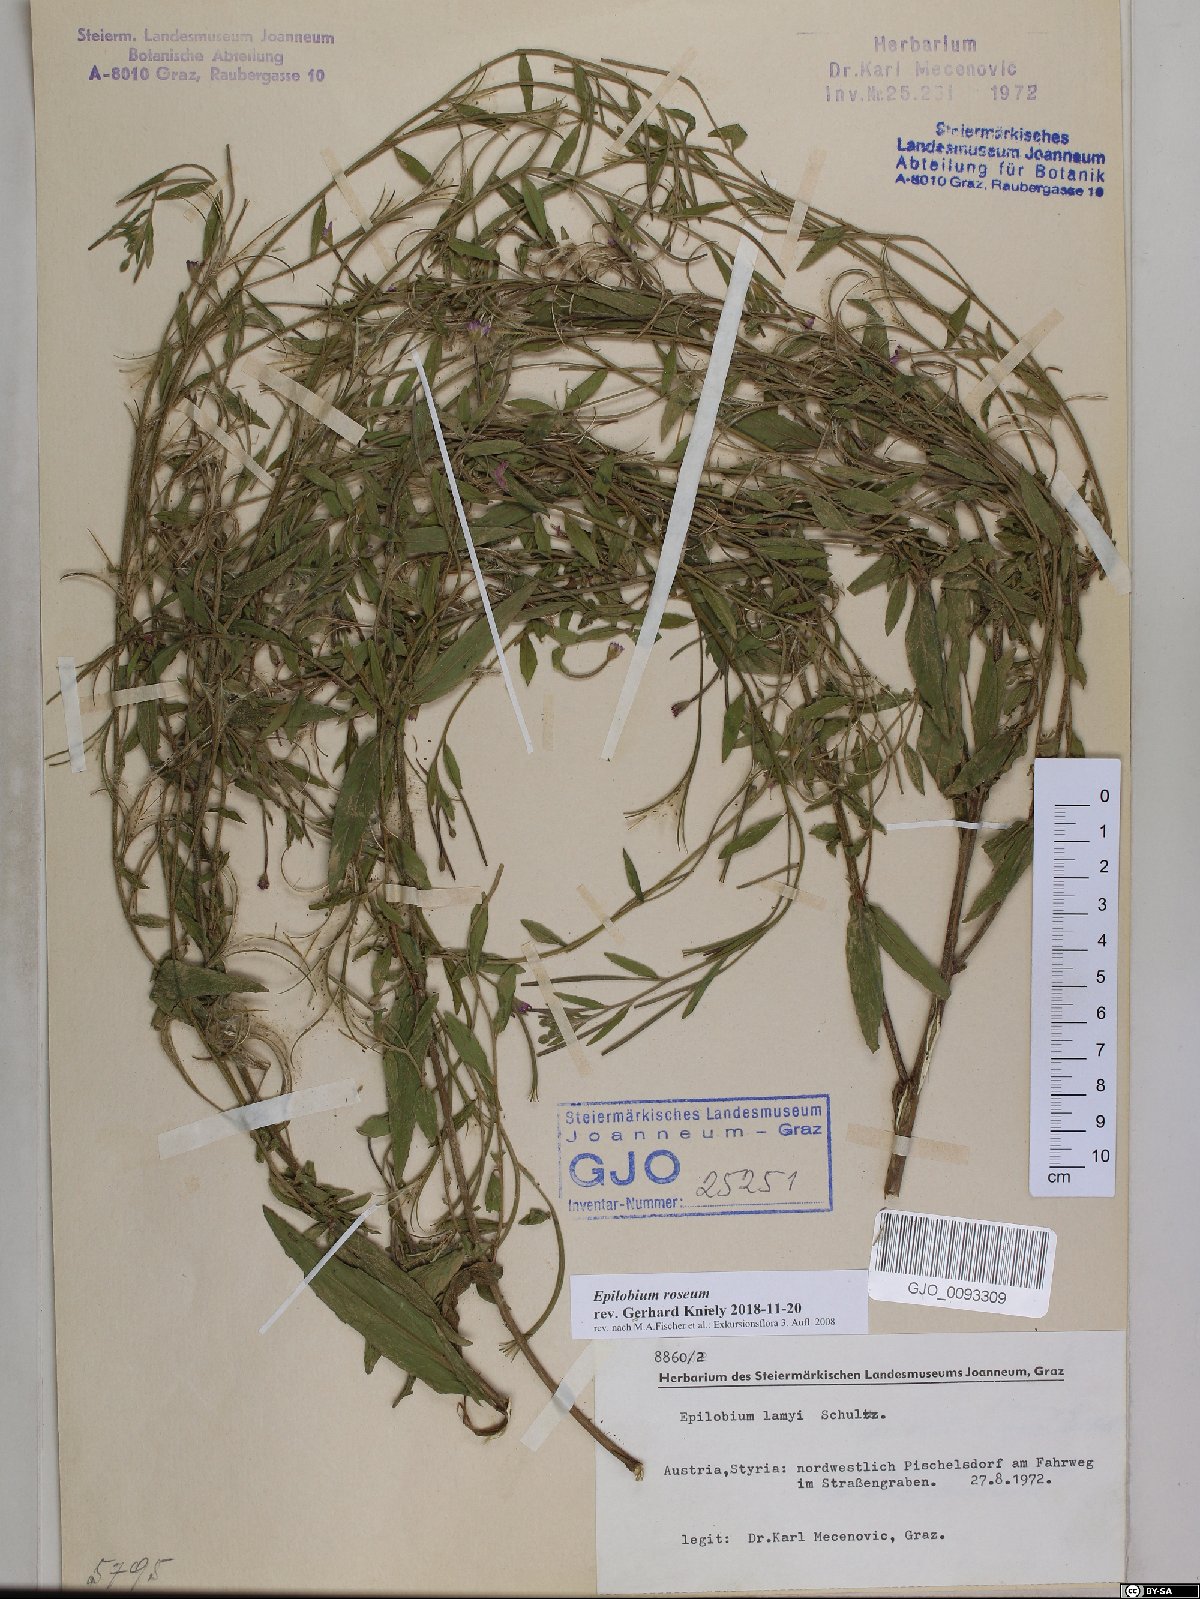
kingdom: Plantae
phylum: Tracheophyta
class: Magnoliopsida
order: Myrtales
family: Onagraceae
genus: Epilobium
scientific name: Epilobium roseum
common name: Pale willowherb
